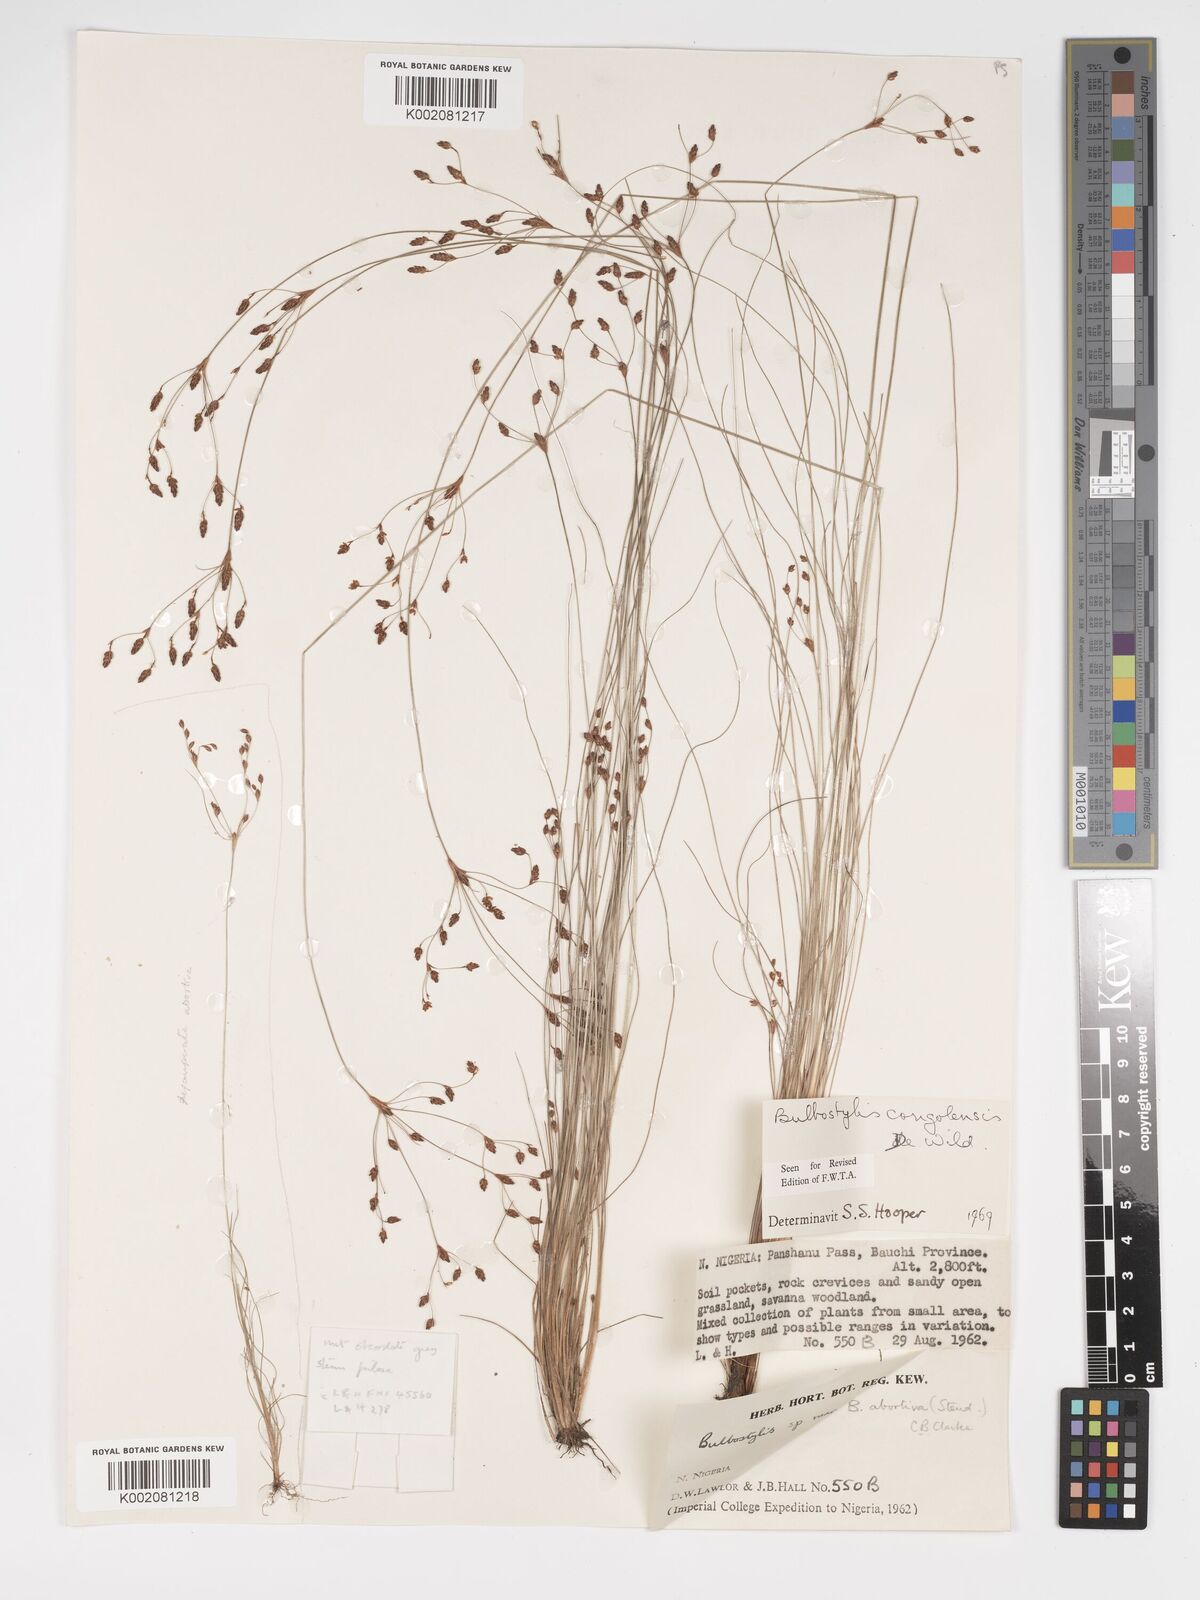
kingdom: Plantae
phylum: Tracheophyta
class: Liliopsida
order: Poales
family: Cyperaceae
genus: Bulbostylis
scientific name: Bulbostylis congolensis
